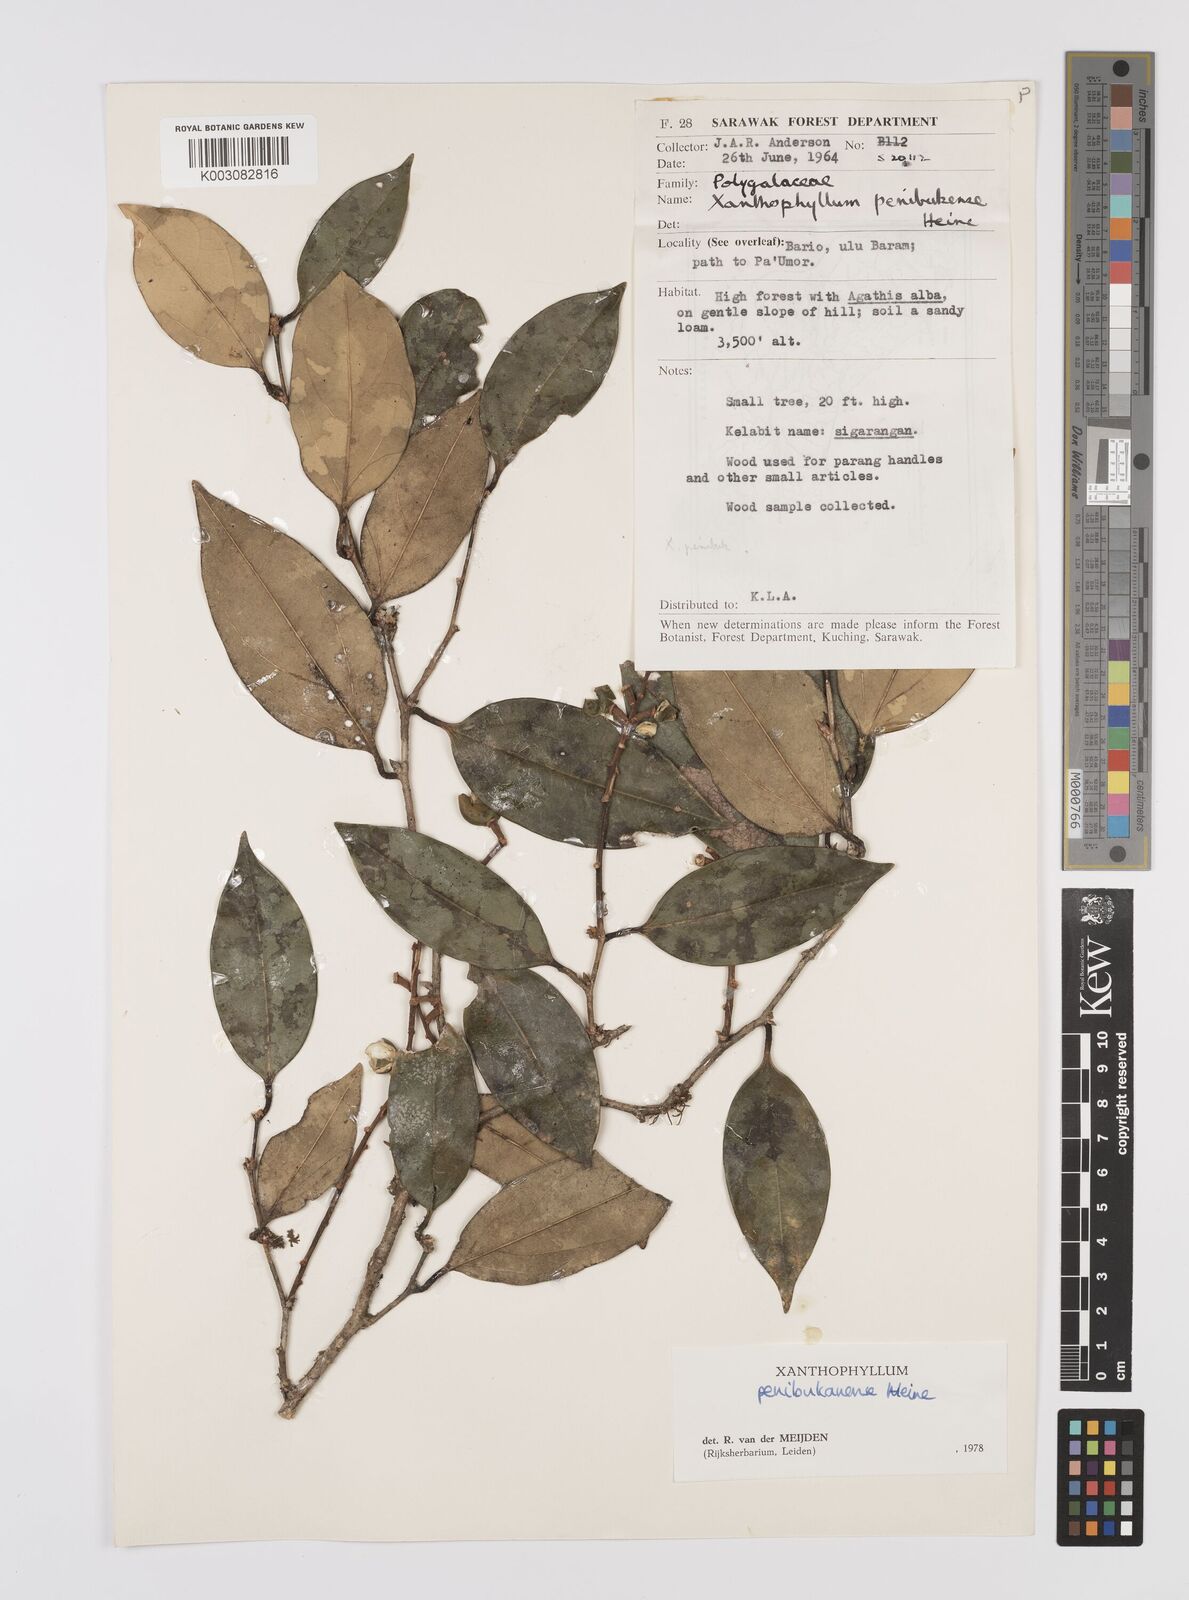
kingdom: Plantae
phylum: Tracheophyta
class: Magnoliopsida
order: Fabales
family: Polygalaceae
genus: Xanthophyllum
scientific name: Xanthophyllum penibukanense
